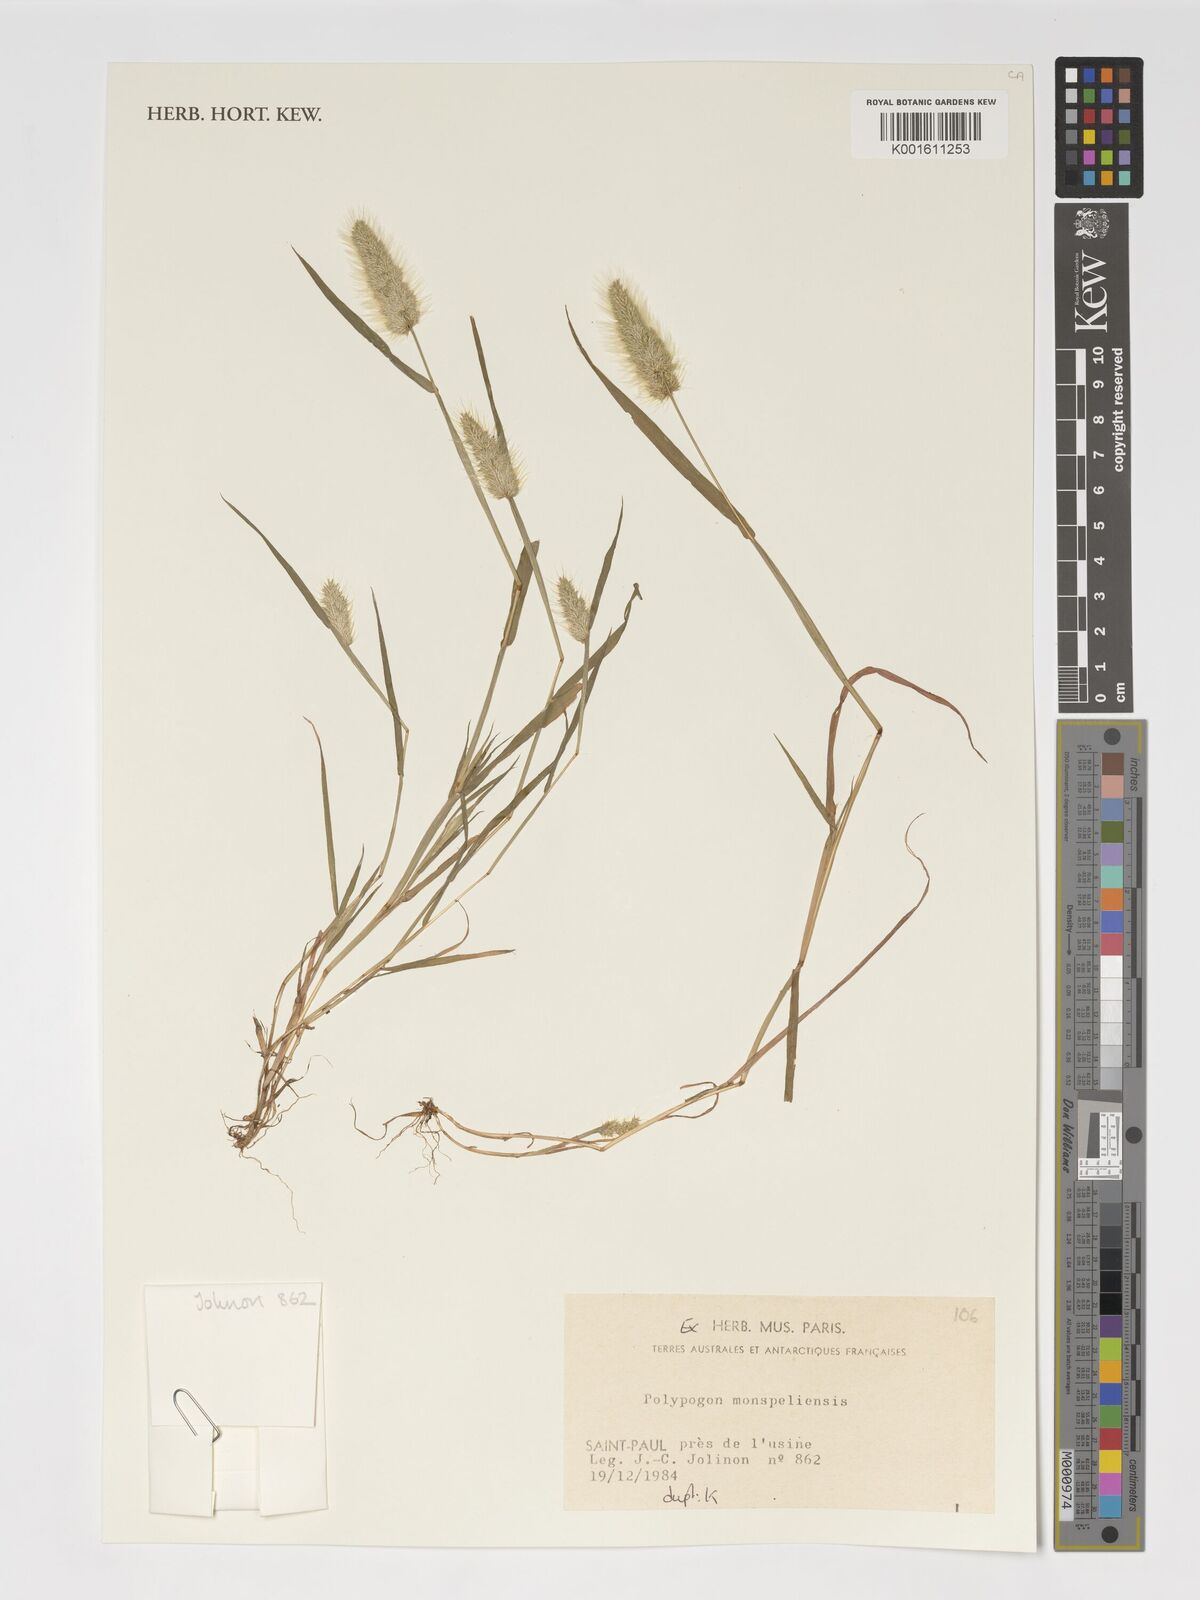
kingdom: Plantae
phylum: Tracheophyta
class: Liliopsida
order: Poales
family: Poaceae
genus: Polypogon
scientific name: Polypogon monspeliensis
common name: Annual rabbitsfoot grass
